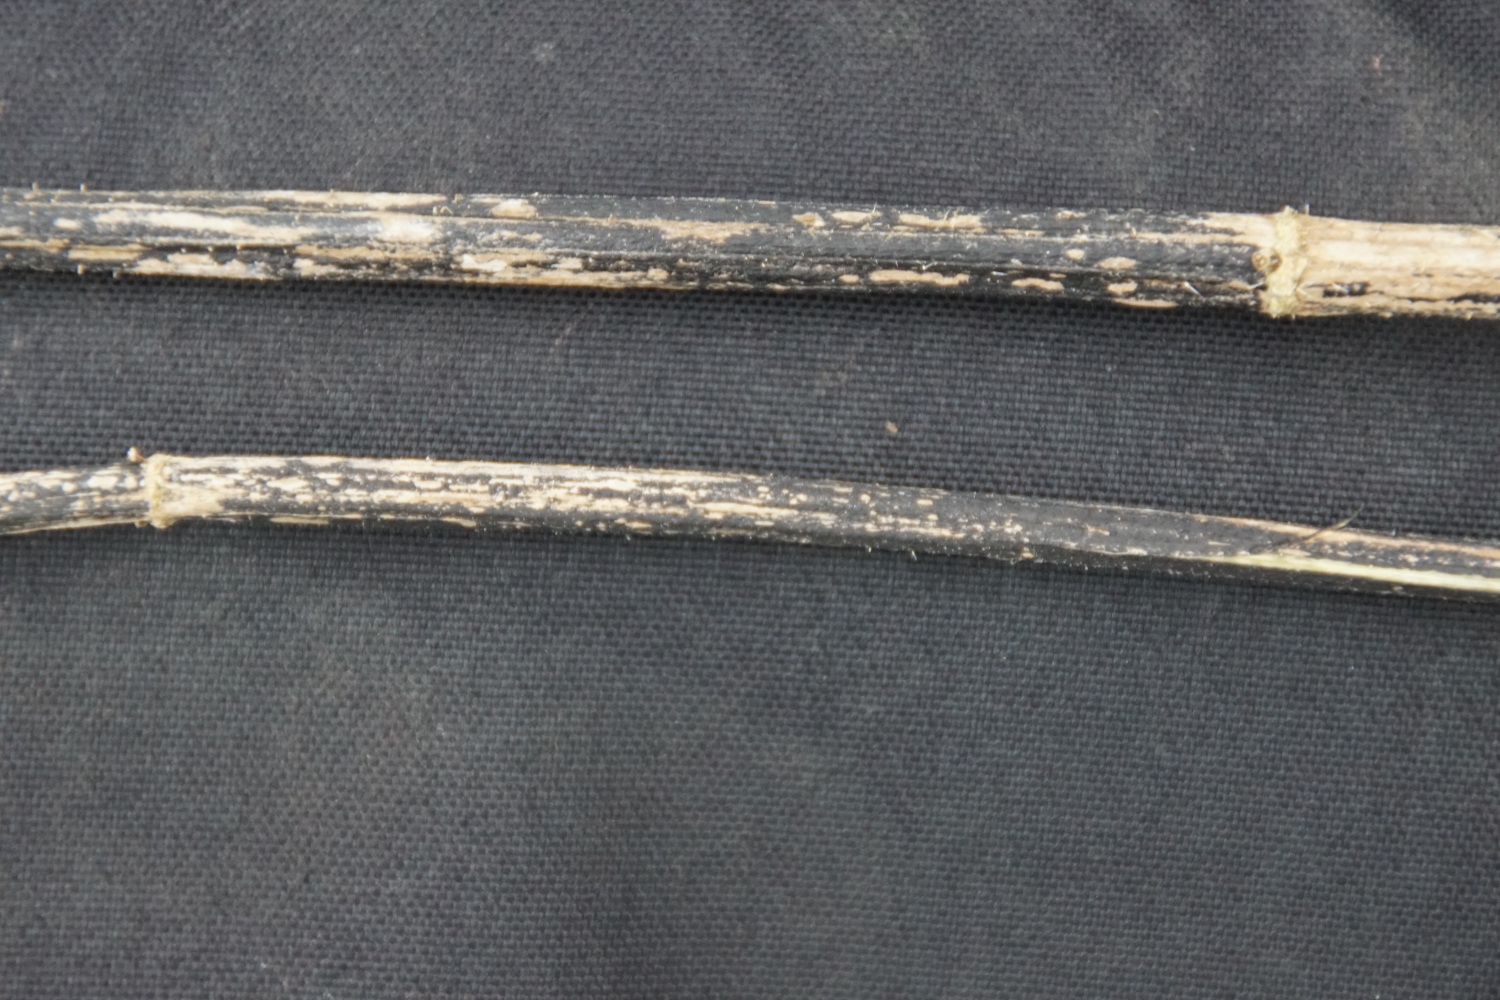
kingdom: Fungi
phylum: Ascomycota
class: Sordariomycetes
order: Diaporthales
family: Diaporthaceae
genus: Diaporthopsis
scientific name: Diaporthopsis urticae
